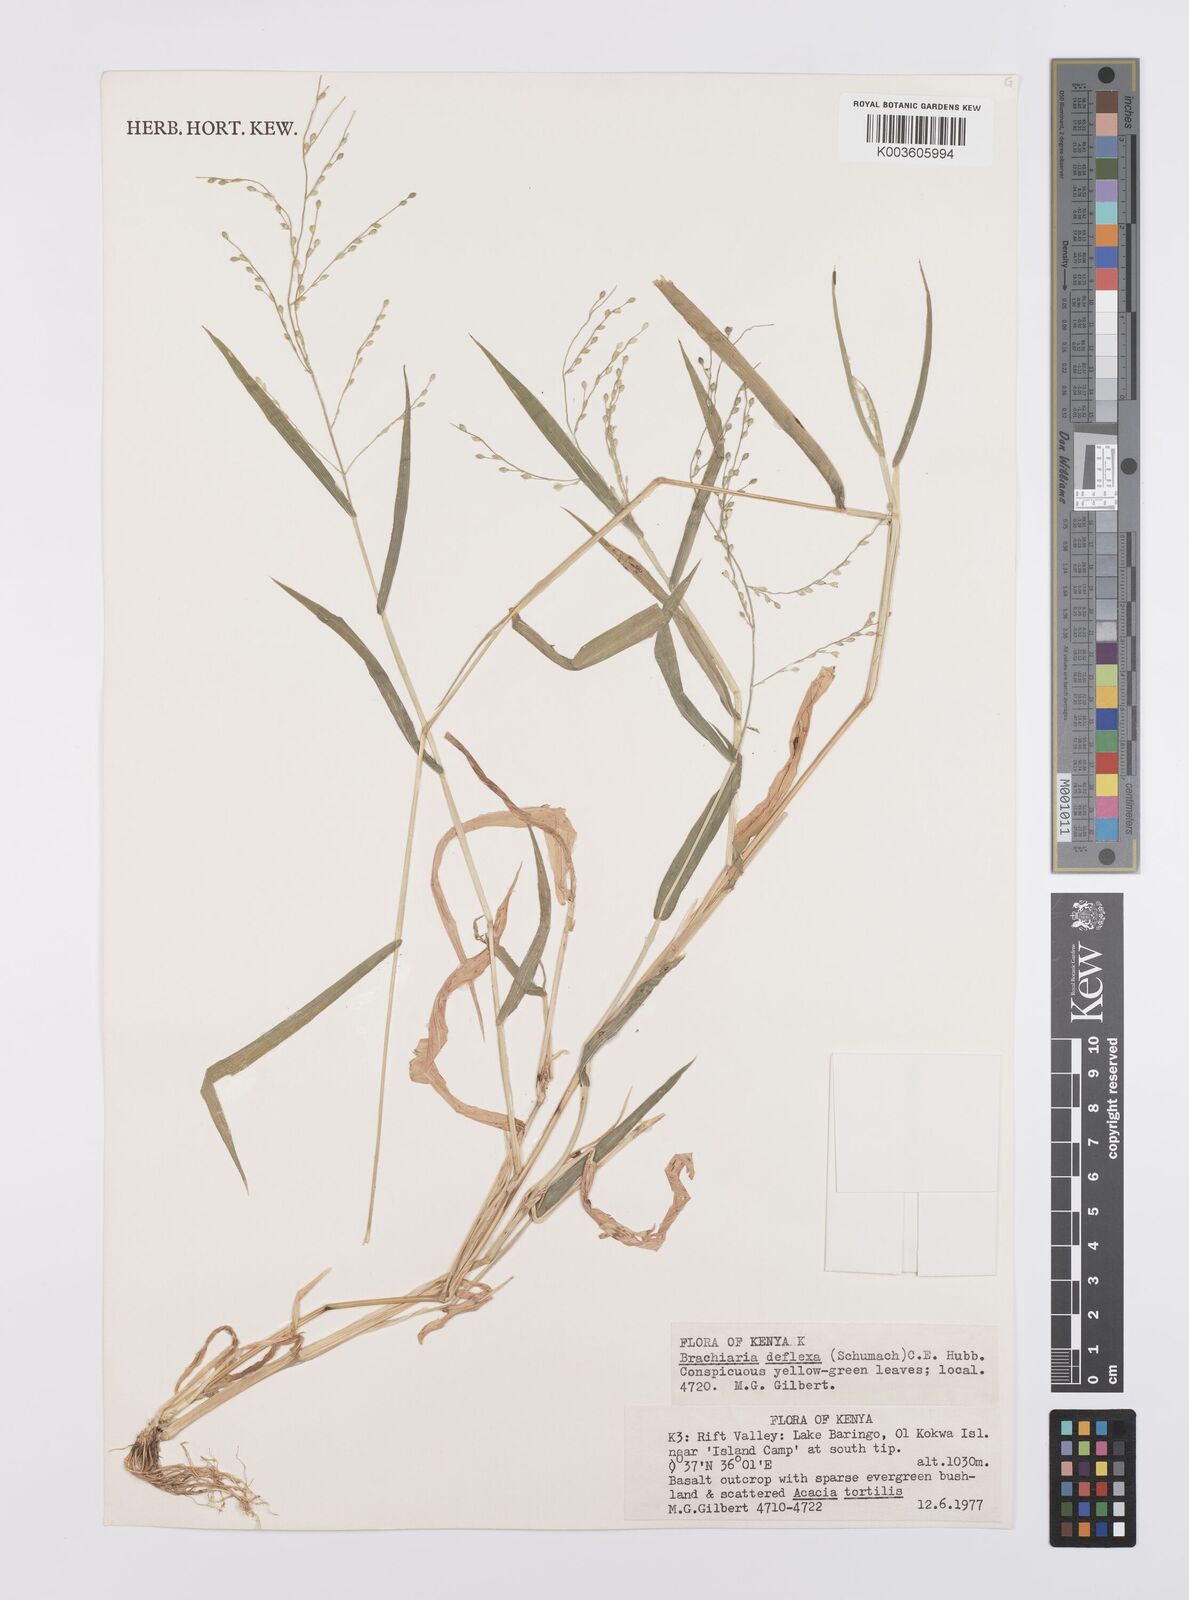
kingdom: Plantae
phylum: Tracheophyta
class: Liliopsida
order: Poales
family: Poaceae
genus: Urochloa
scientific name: Urochloa deflexa
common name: Guinea millet
